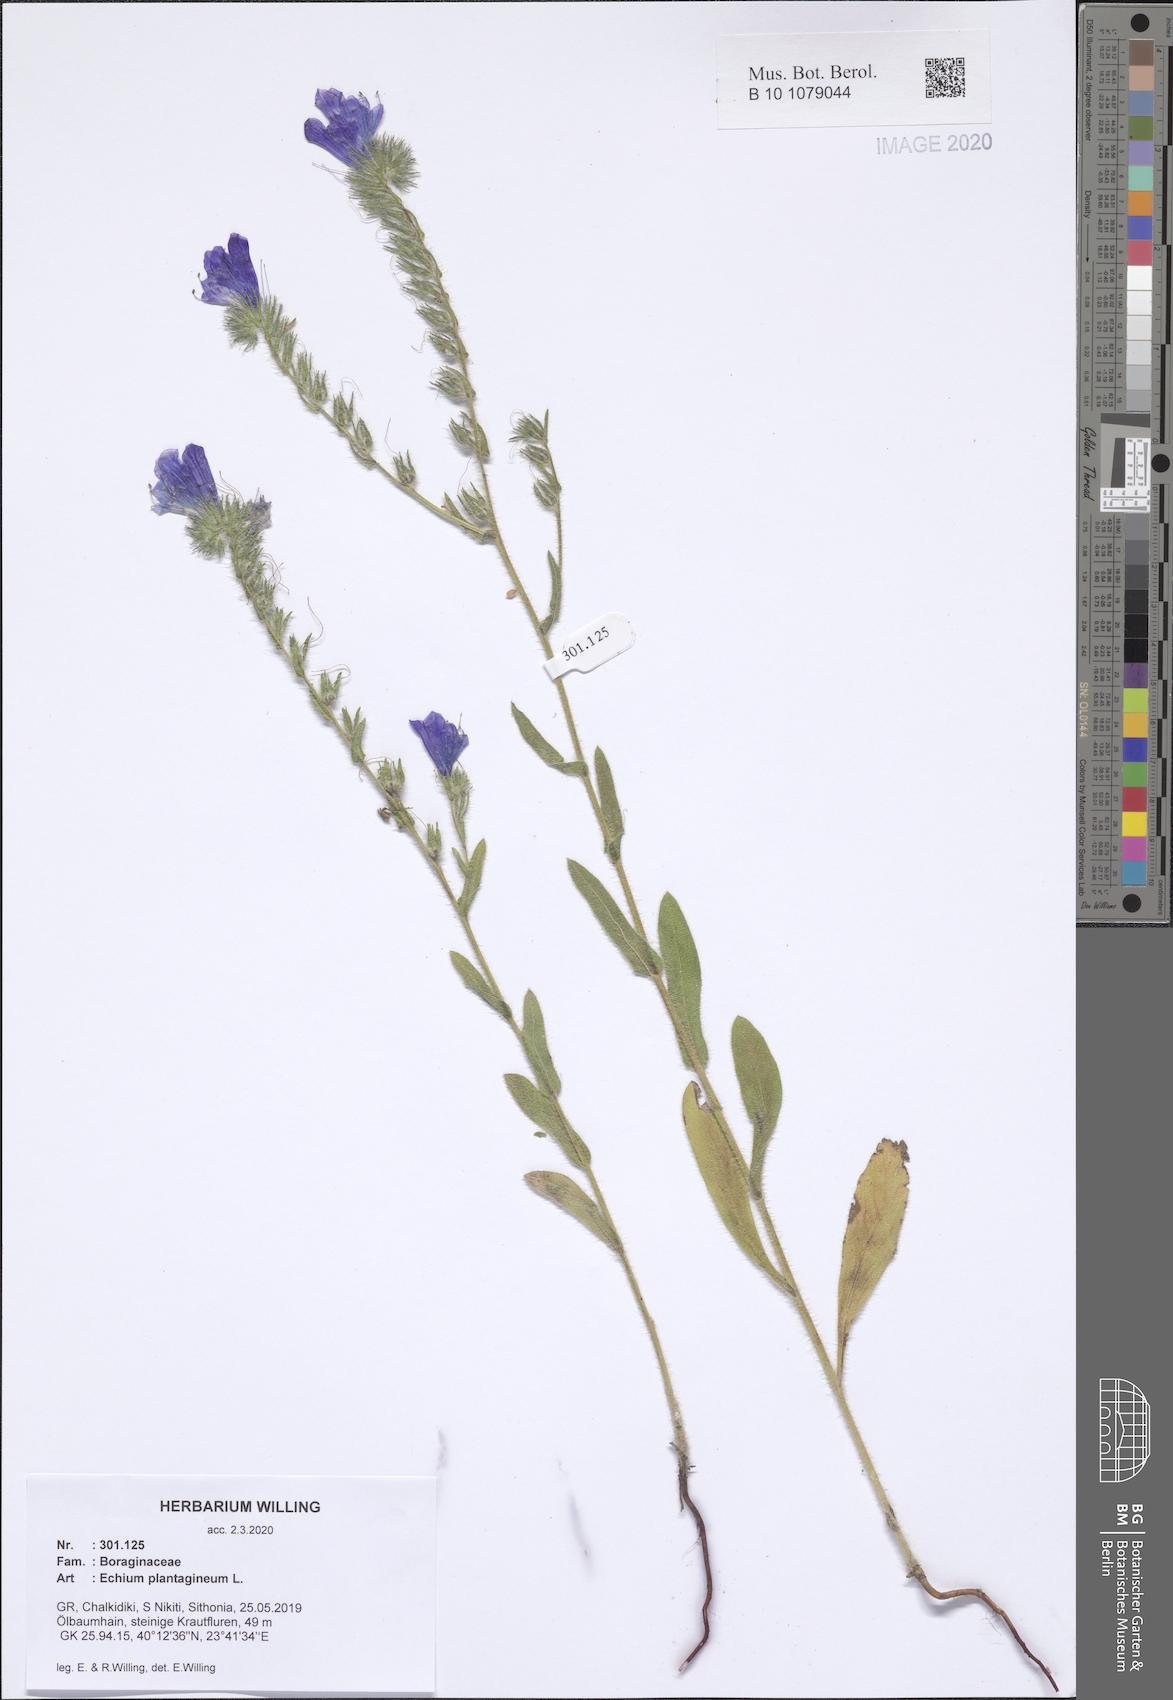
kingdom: Plantae
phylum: Tracheophyta
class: Magnoliopsida
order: Boraginales
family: Boraginaceae
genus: Echium
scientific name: Echium plantagineum
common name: Purple viper's-bugloss
